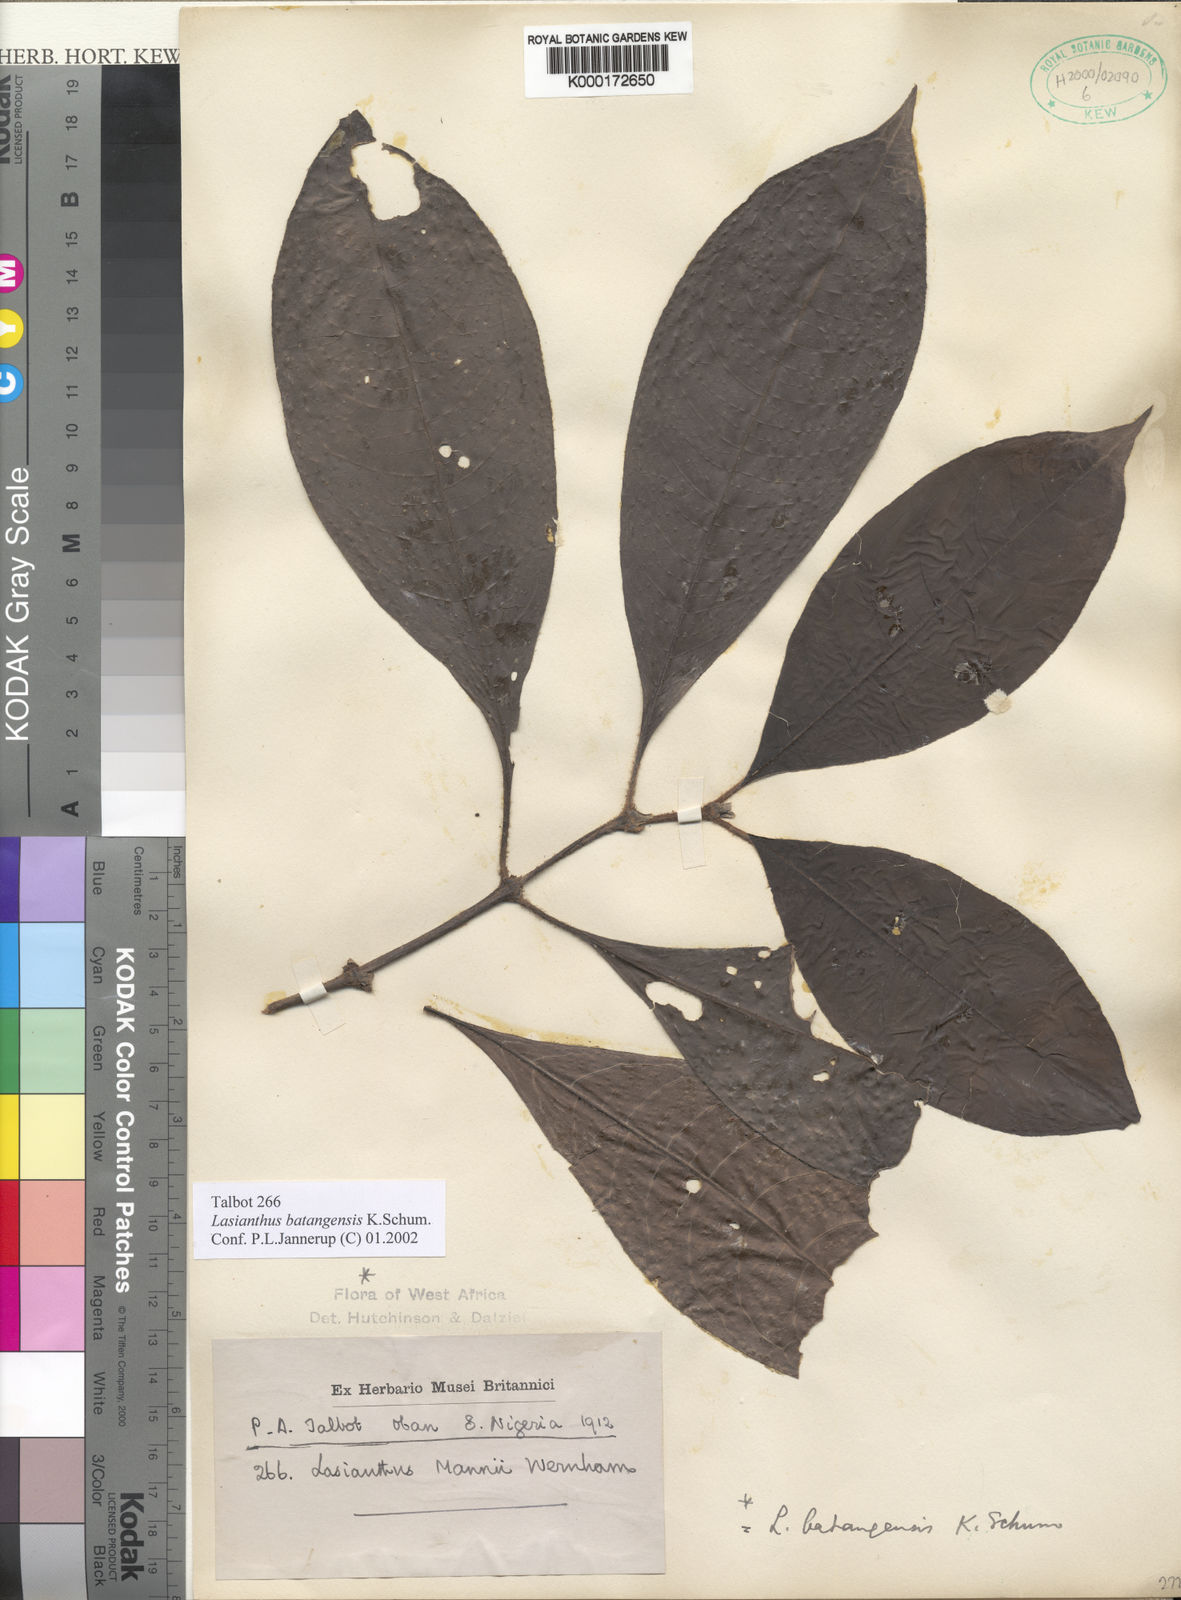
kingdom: Plantae
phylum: Tracheophyta
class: Magnoliopsida
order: Gentianales
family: Rubiaceae
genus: Lasianthus
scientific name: Lasianthus batangensis
